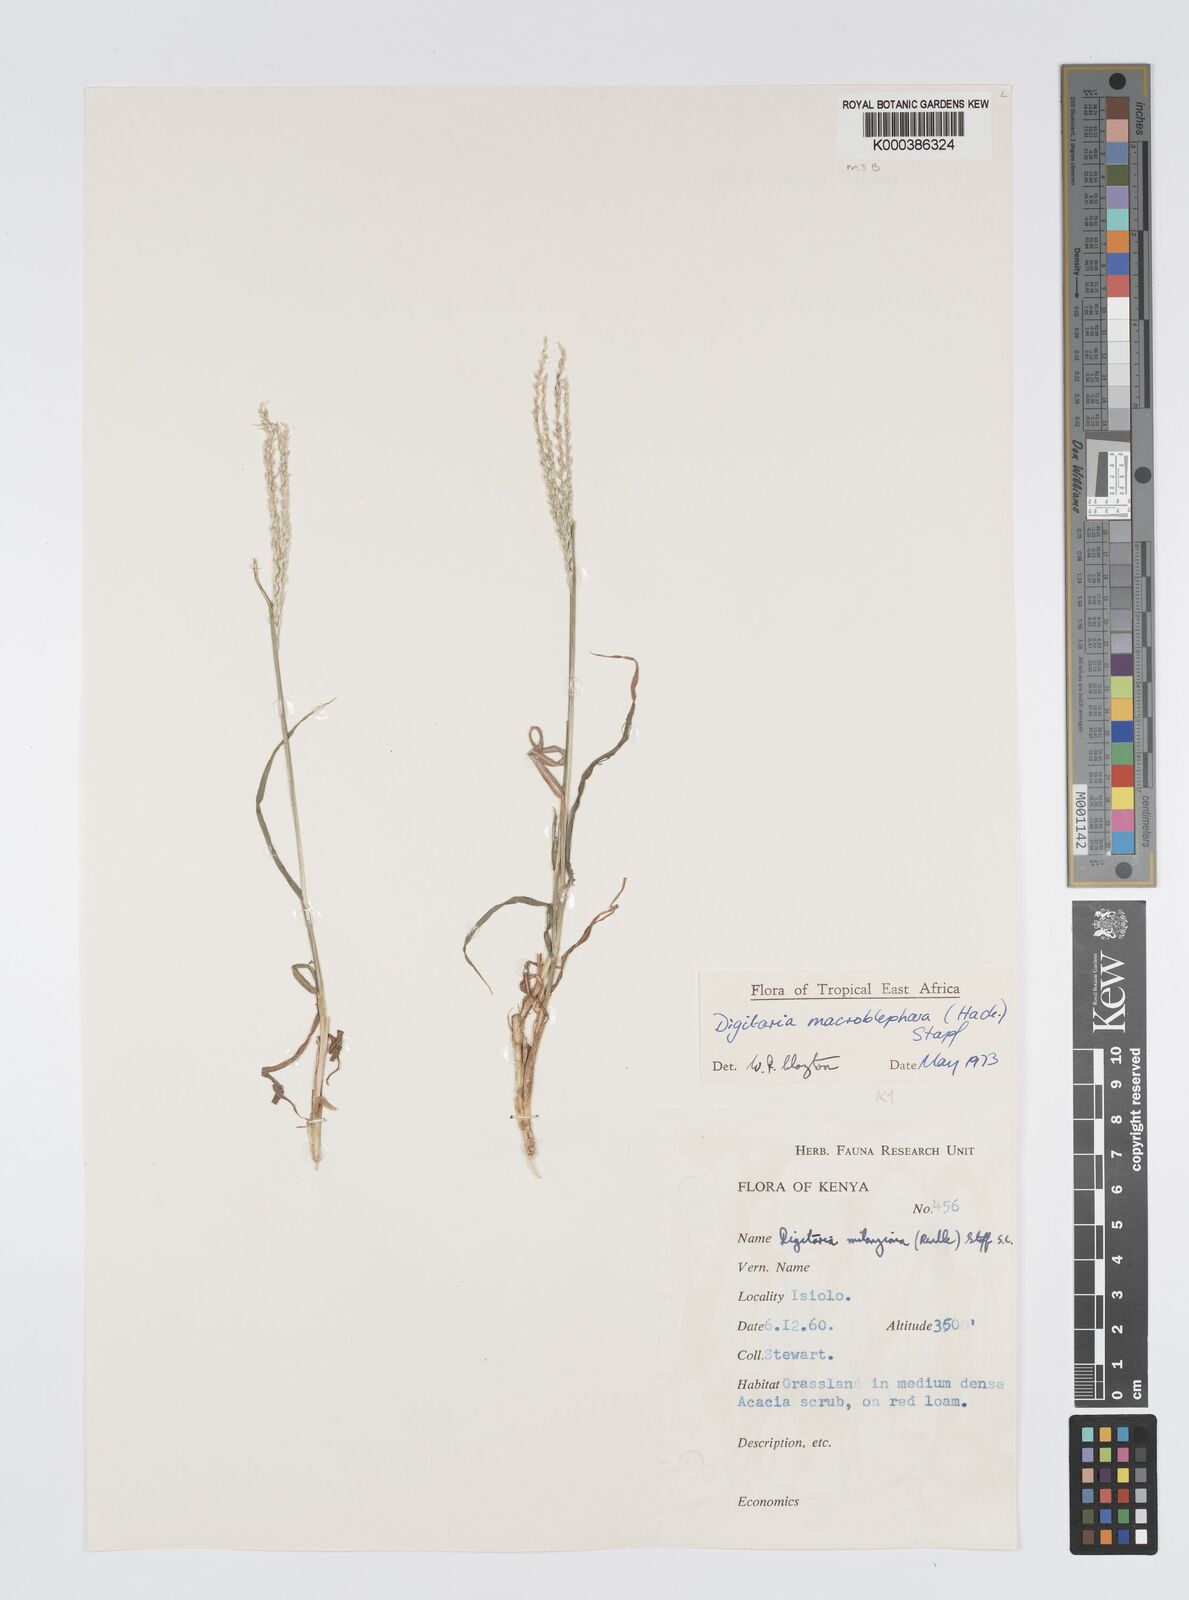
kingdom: Plantae
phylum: Tracheophyta
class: Liliopsida
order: Poales
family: Poaceae
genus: Digitaria
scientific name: Digitaria macroblephara
